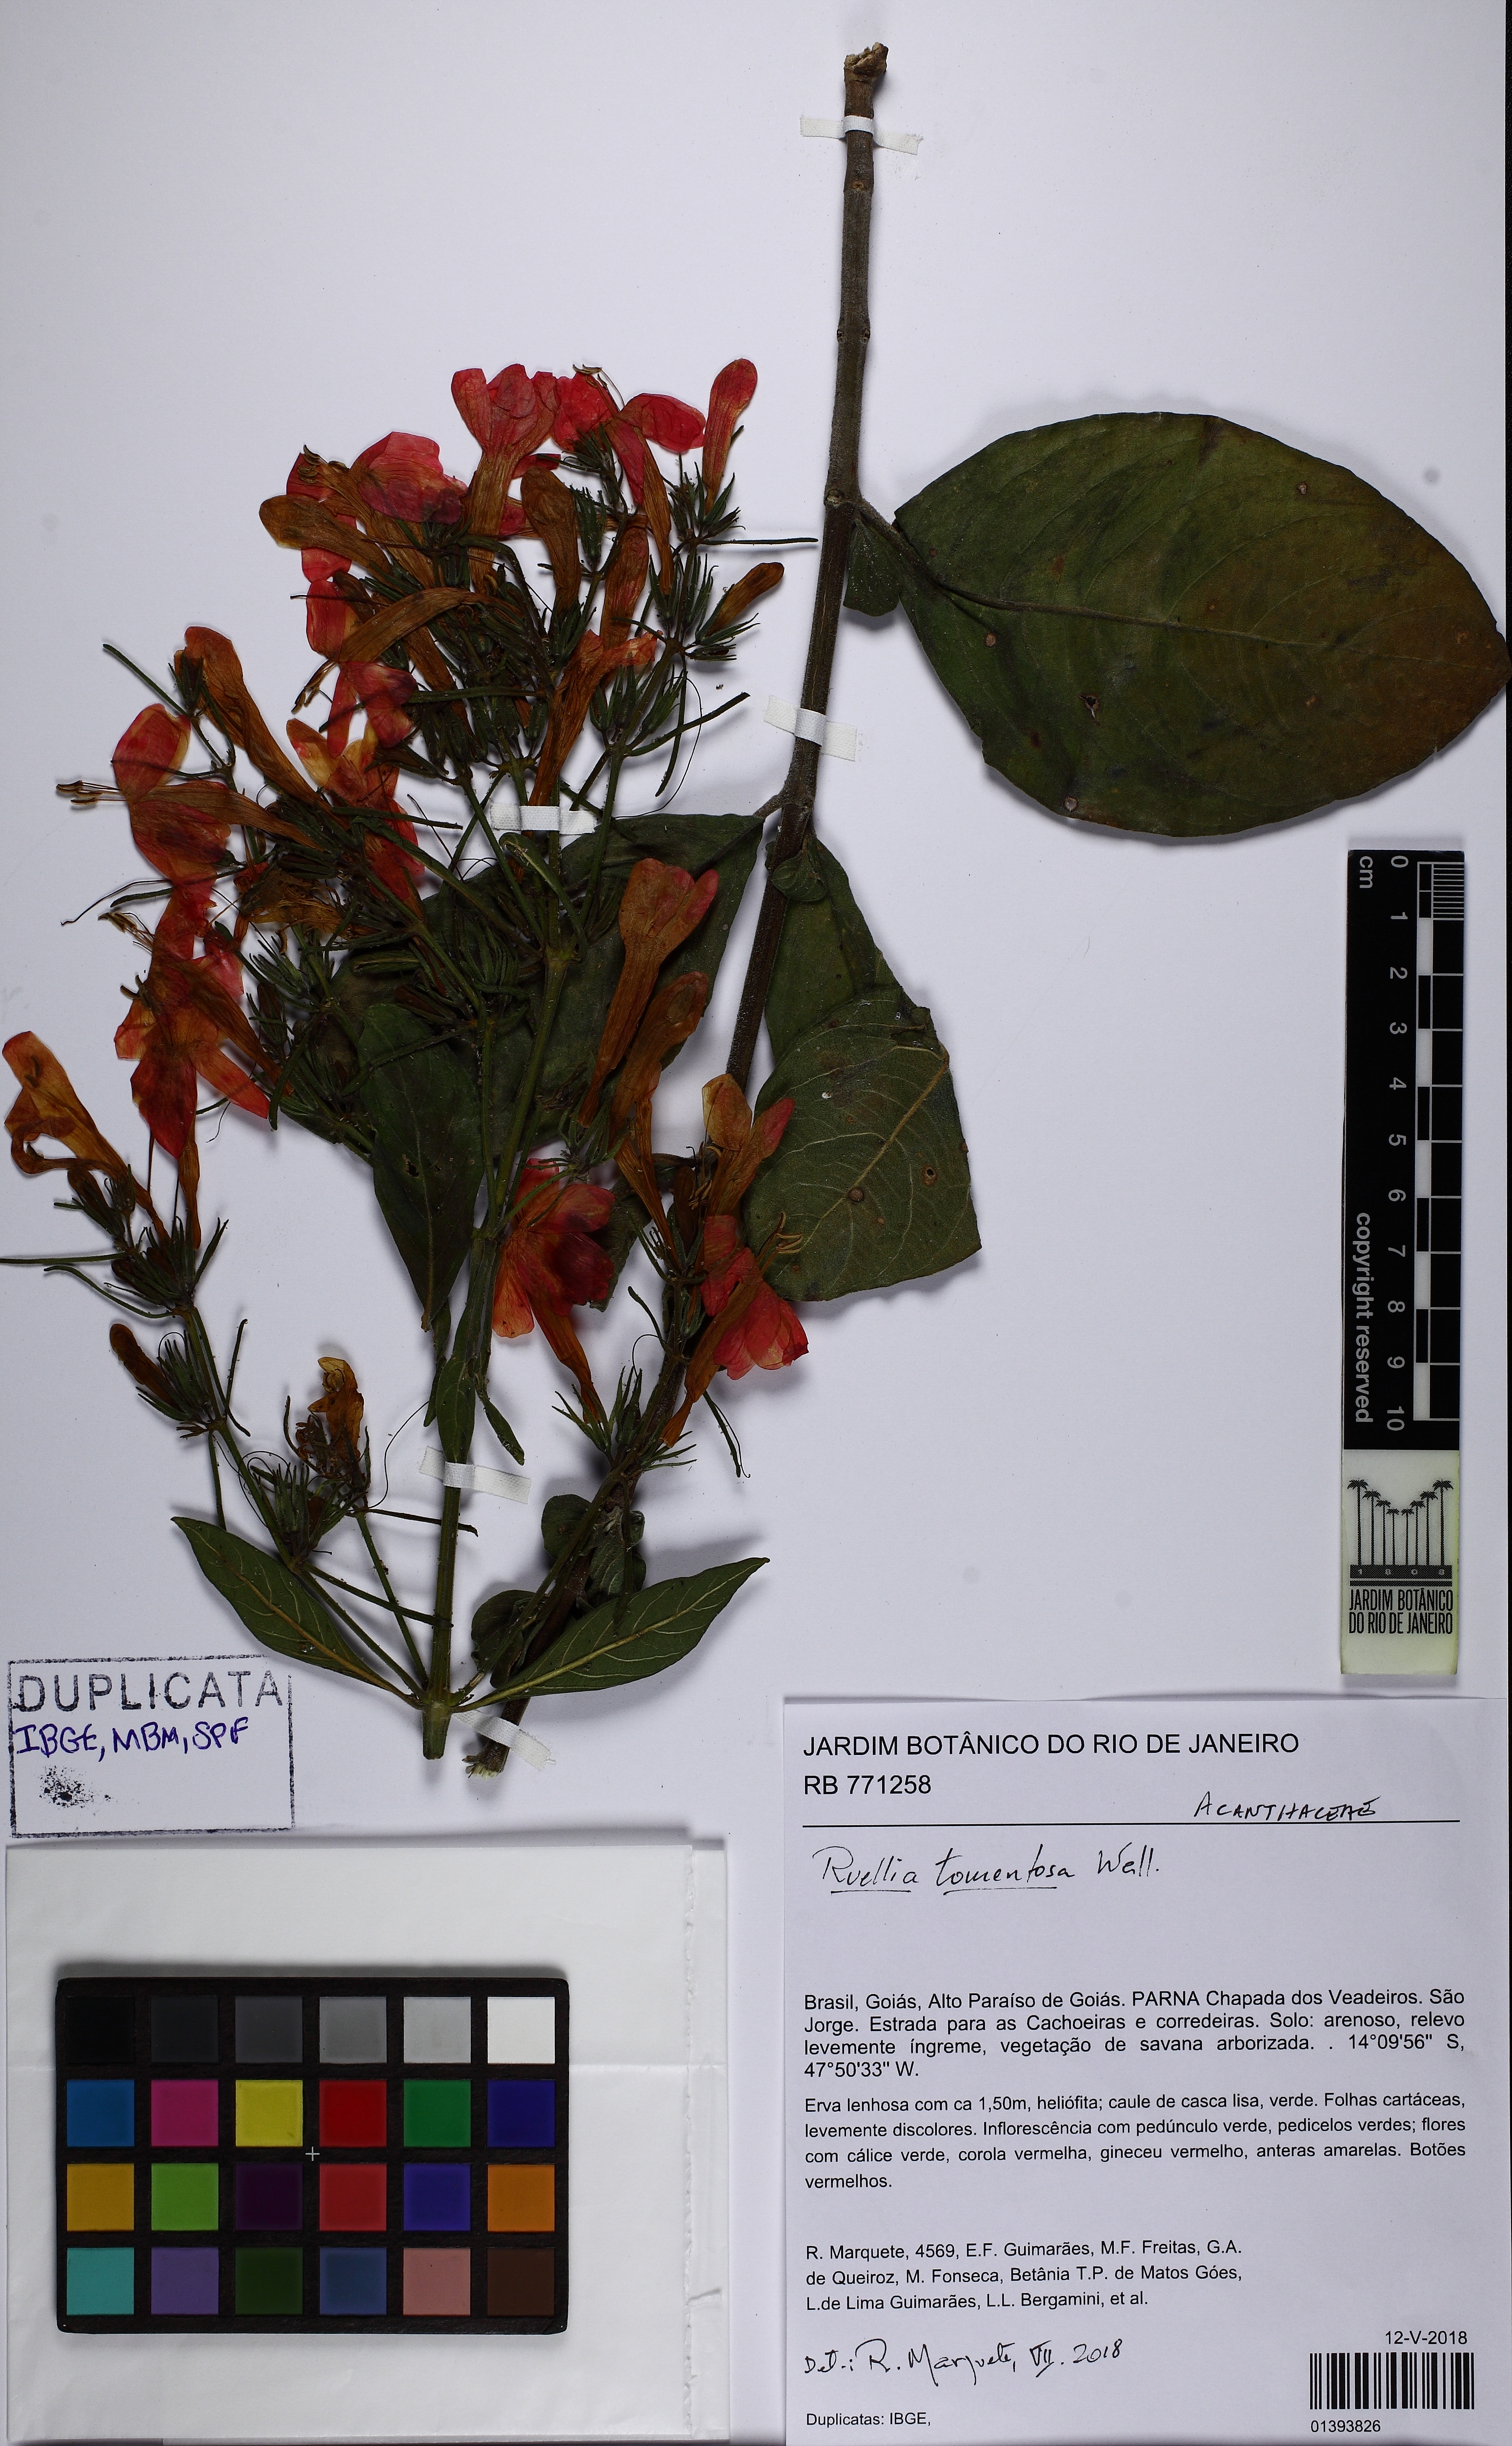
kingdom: Plantae
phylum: Tracheophyta
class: Magnoliopsida
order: Lamiales
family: Acanthaceae
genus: Strobilanthes
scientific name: Strobilanthes tomentosa
